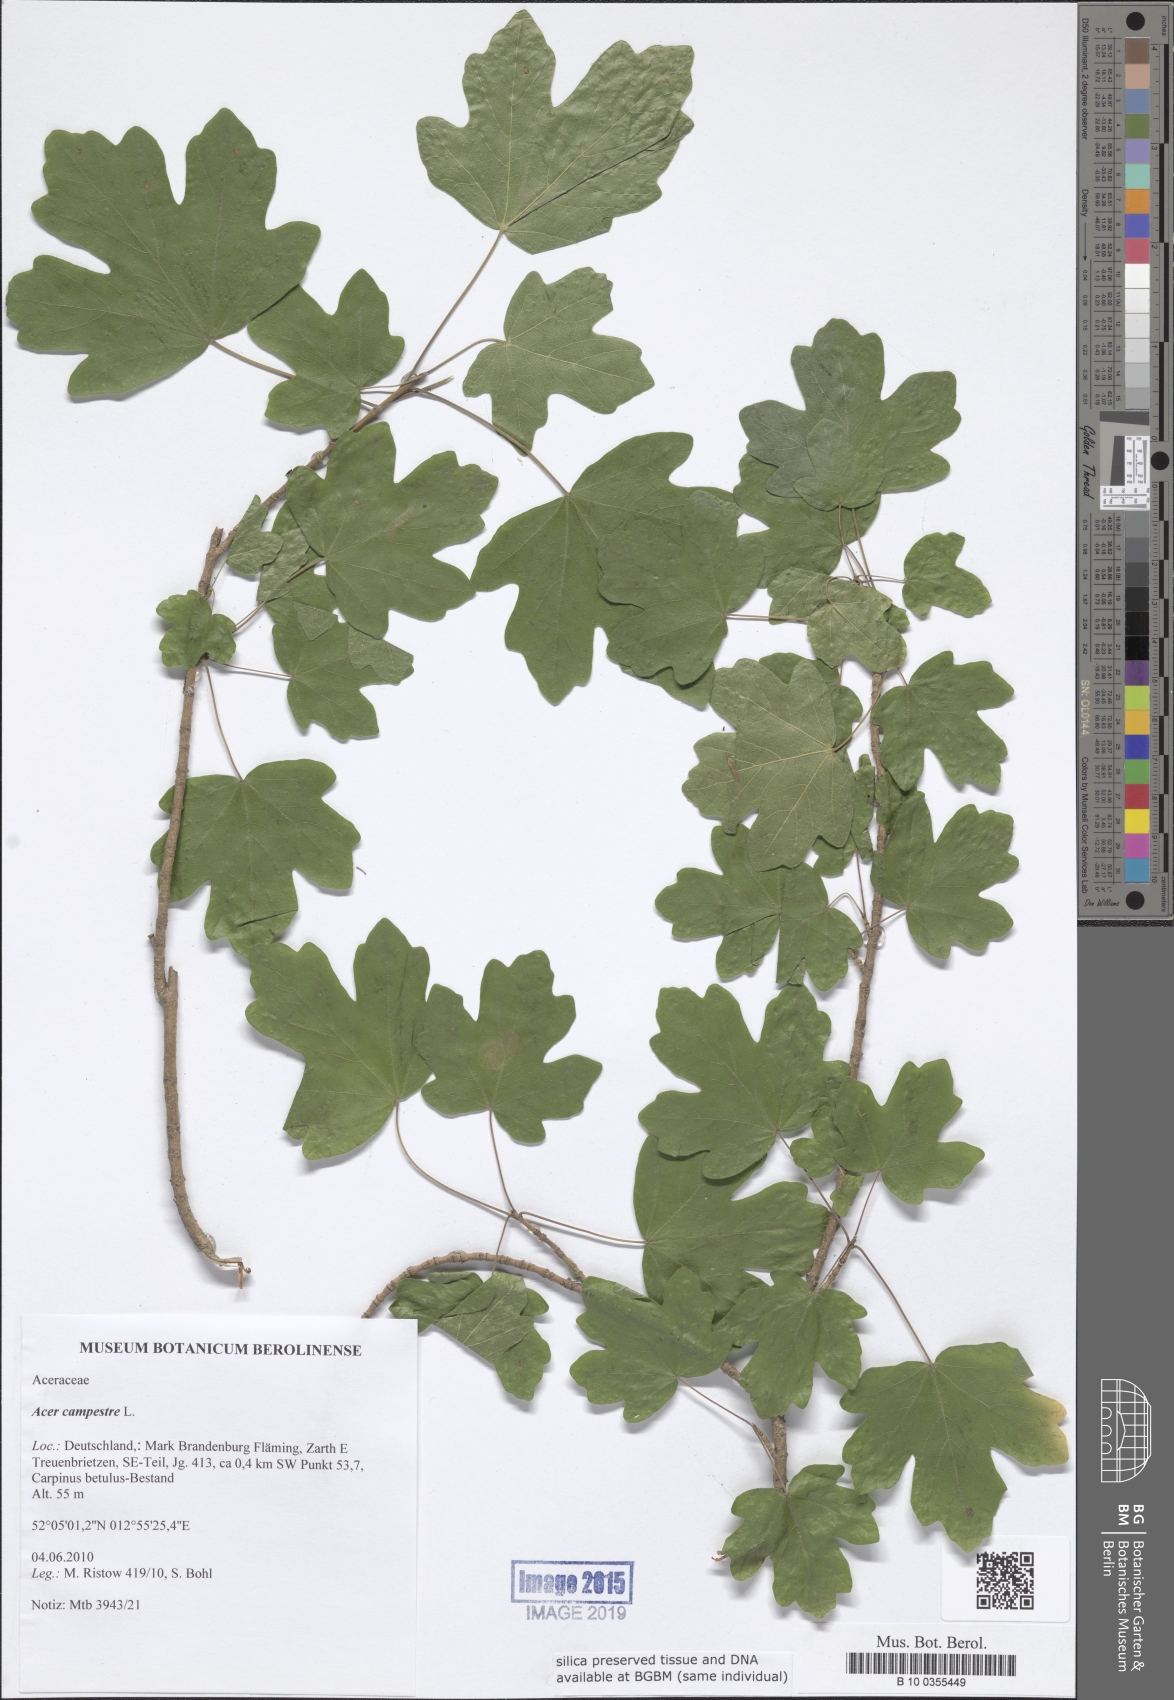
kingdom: Plantae
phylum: Tracheophyta
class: Magnoliopsida
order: Sapindales
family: Sapindaceae
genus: Acer
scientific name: Acer campestre
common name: Field maple
